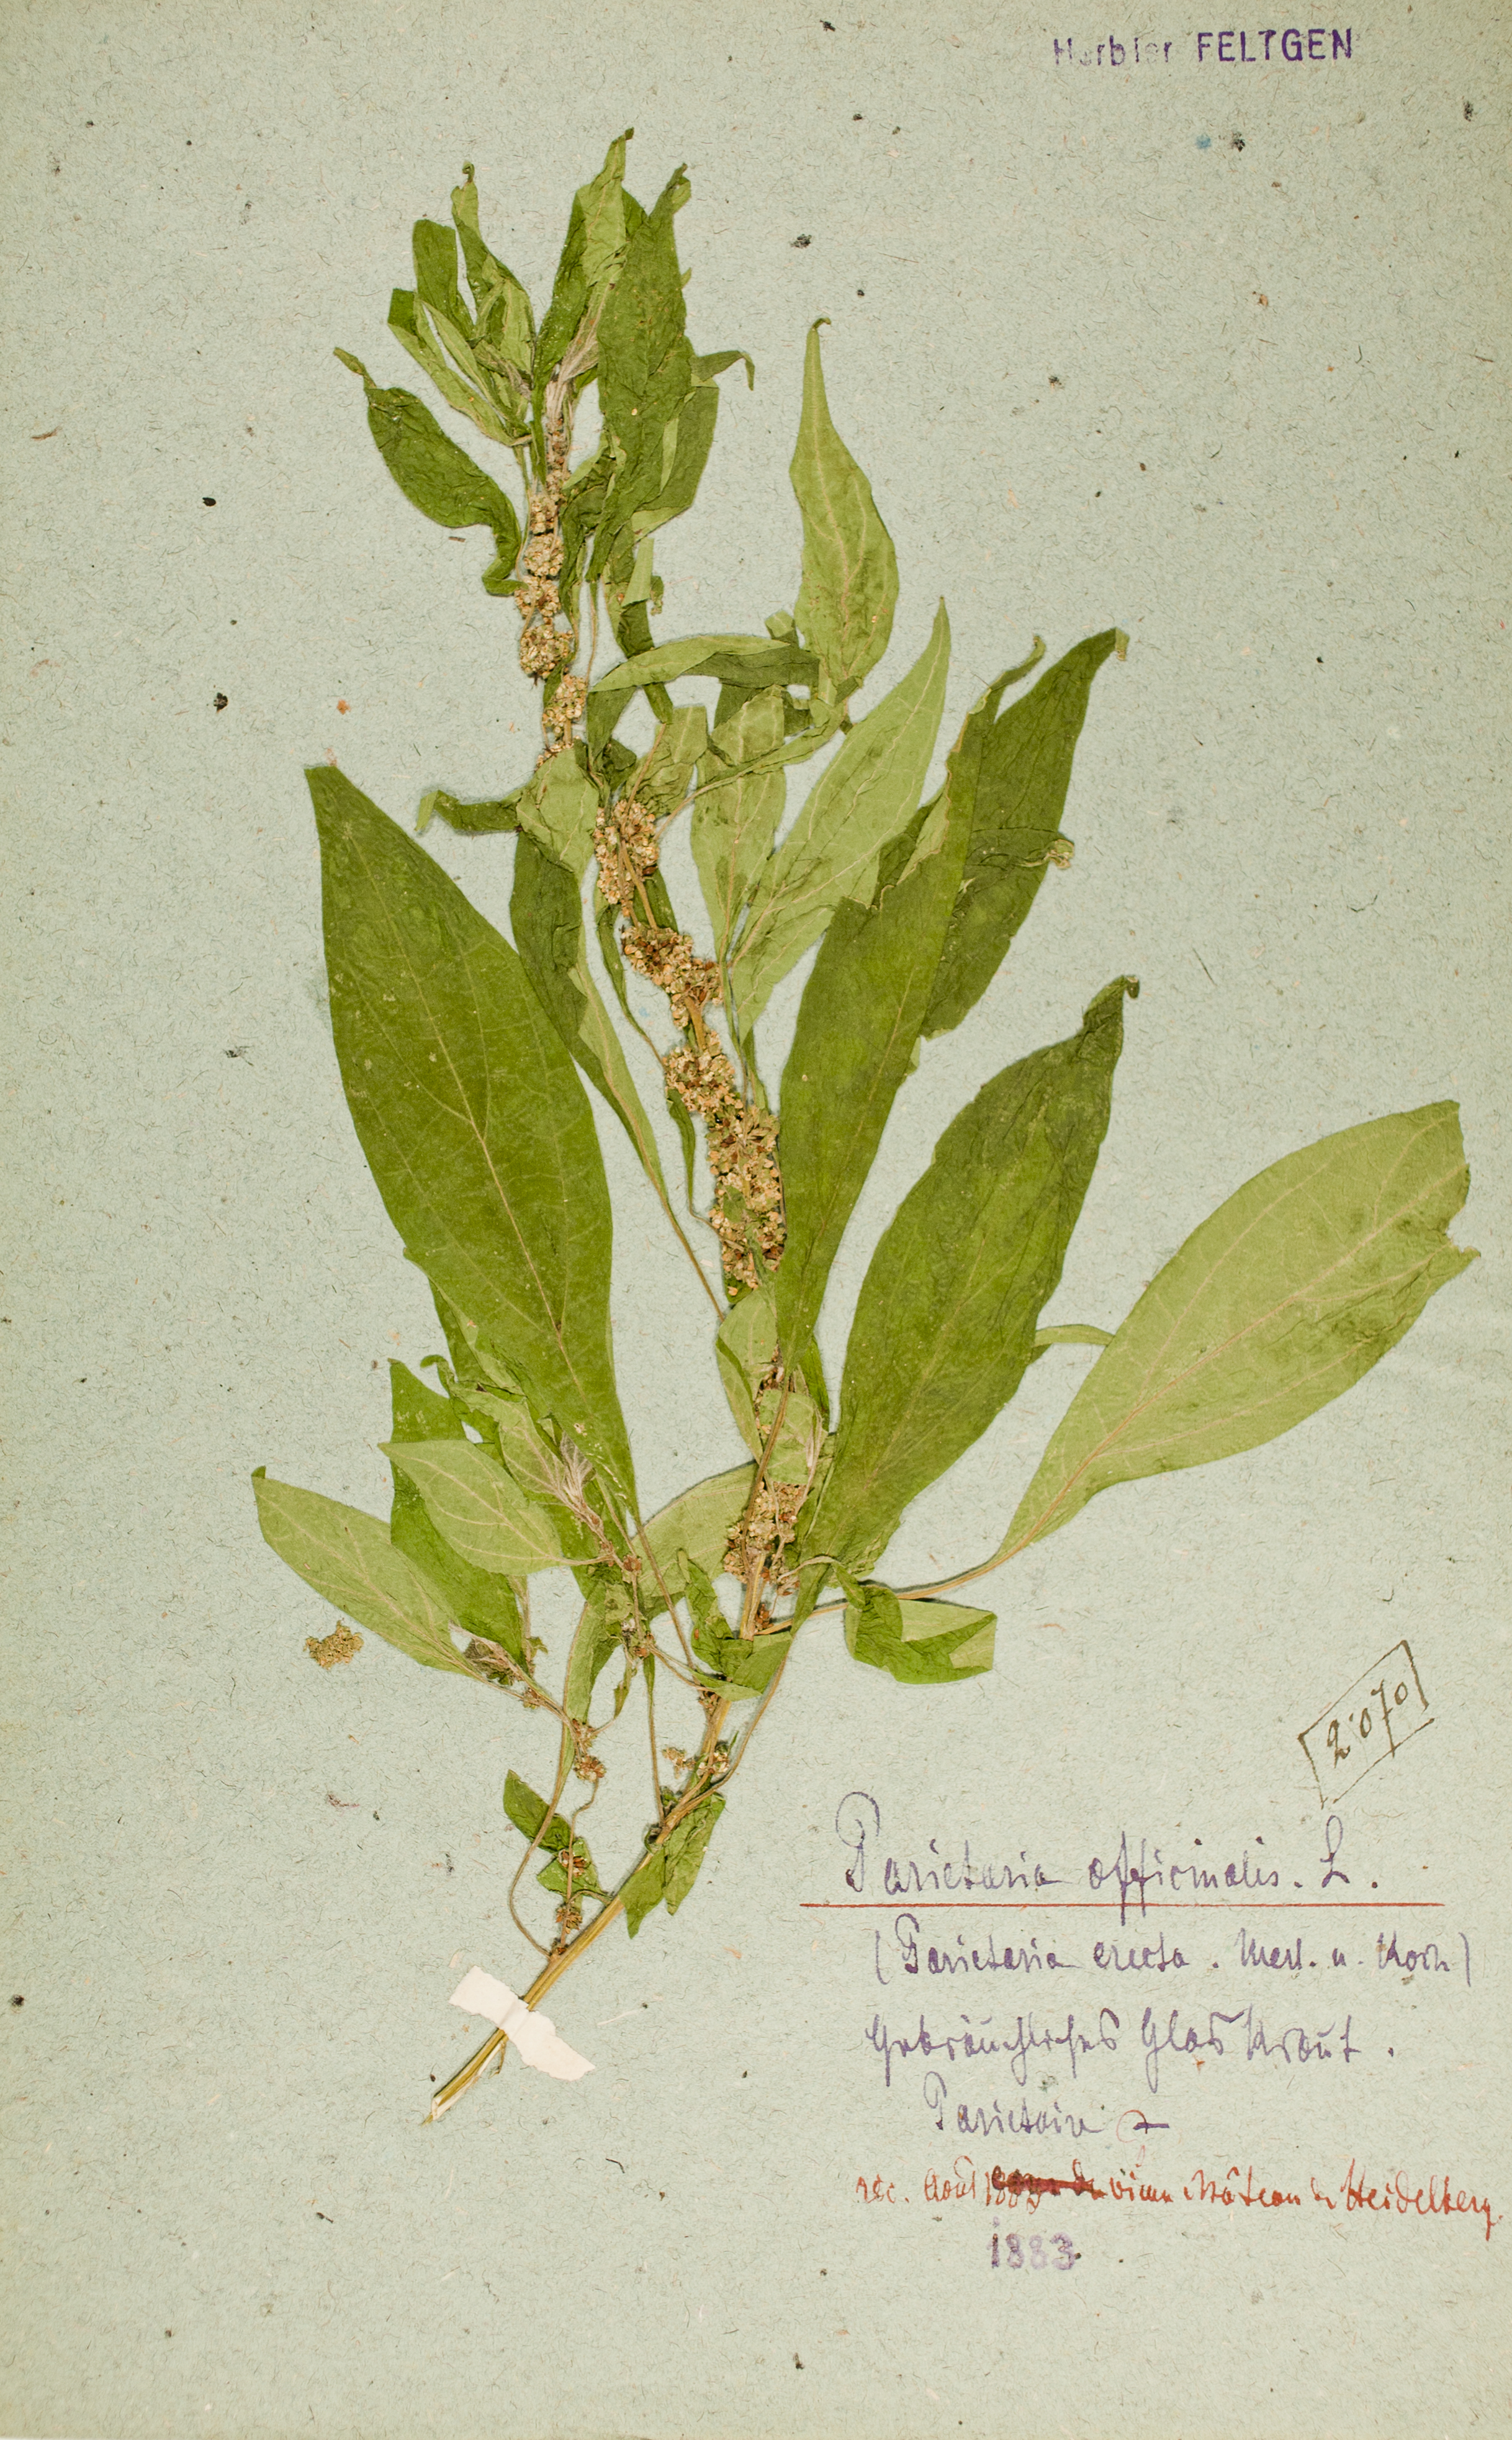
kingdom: Plantae
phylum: Tracheophyta
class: Magnoliopsida
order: Rosales
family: Urticaceae
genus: Parietaria
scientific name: Parietaria officinalis
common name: Eastern pellitory-of-the-wall
